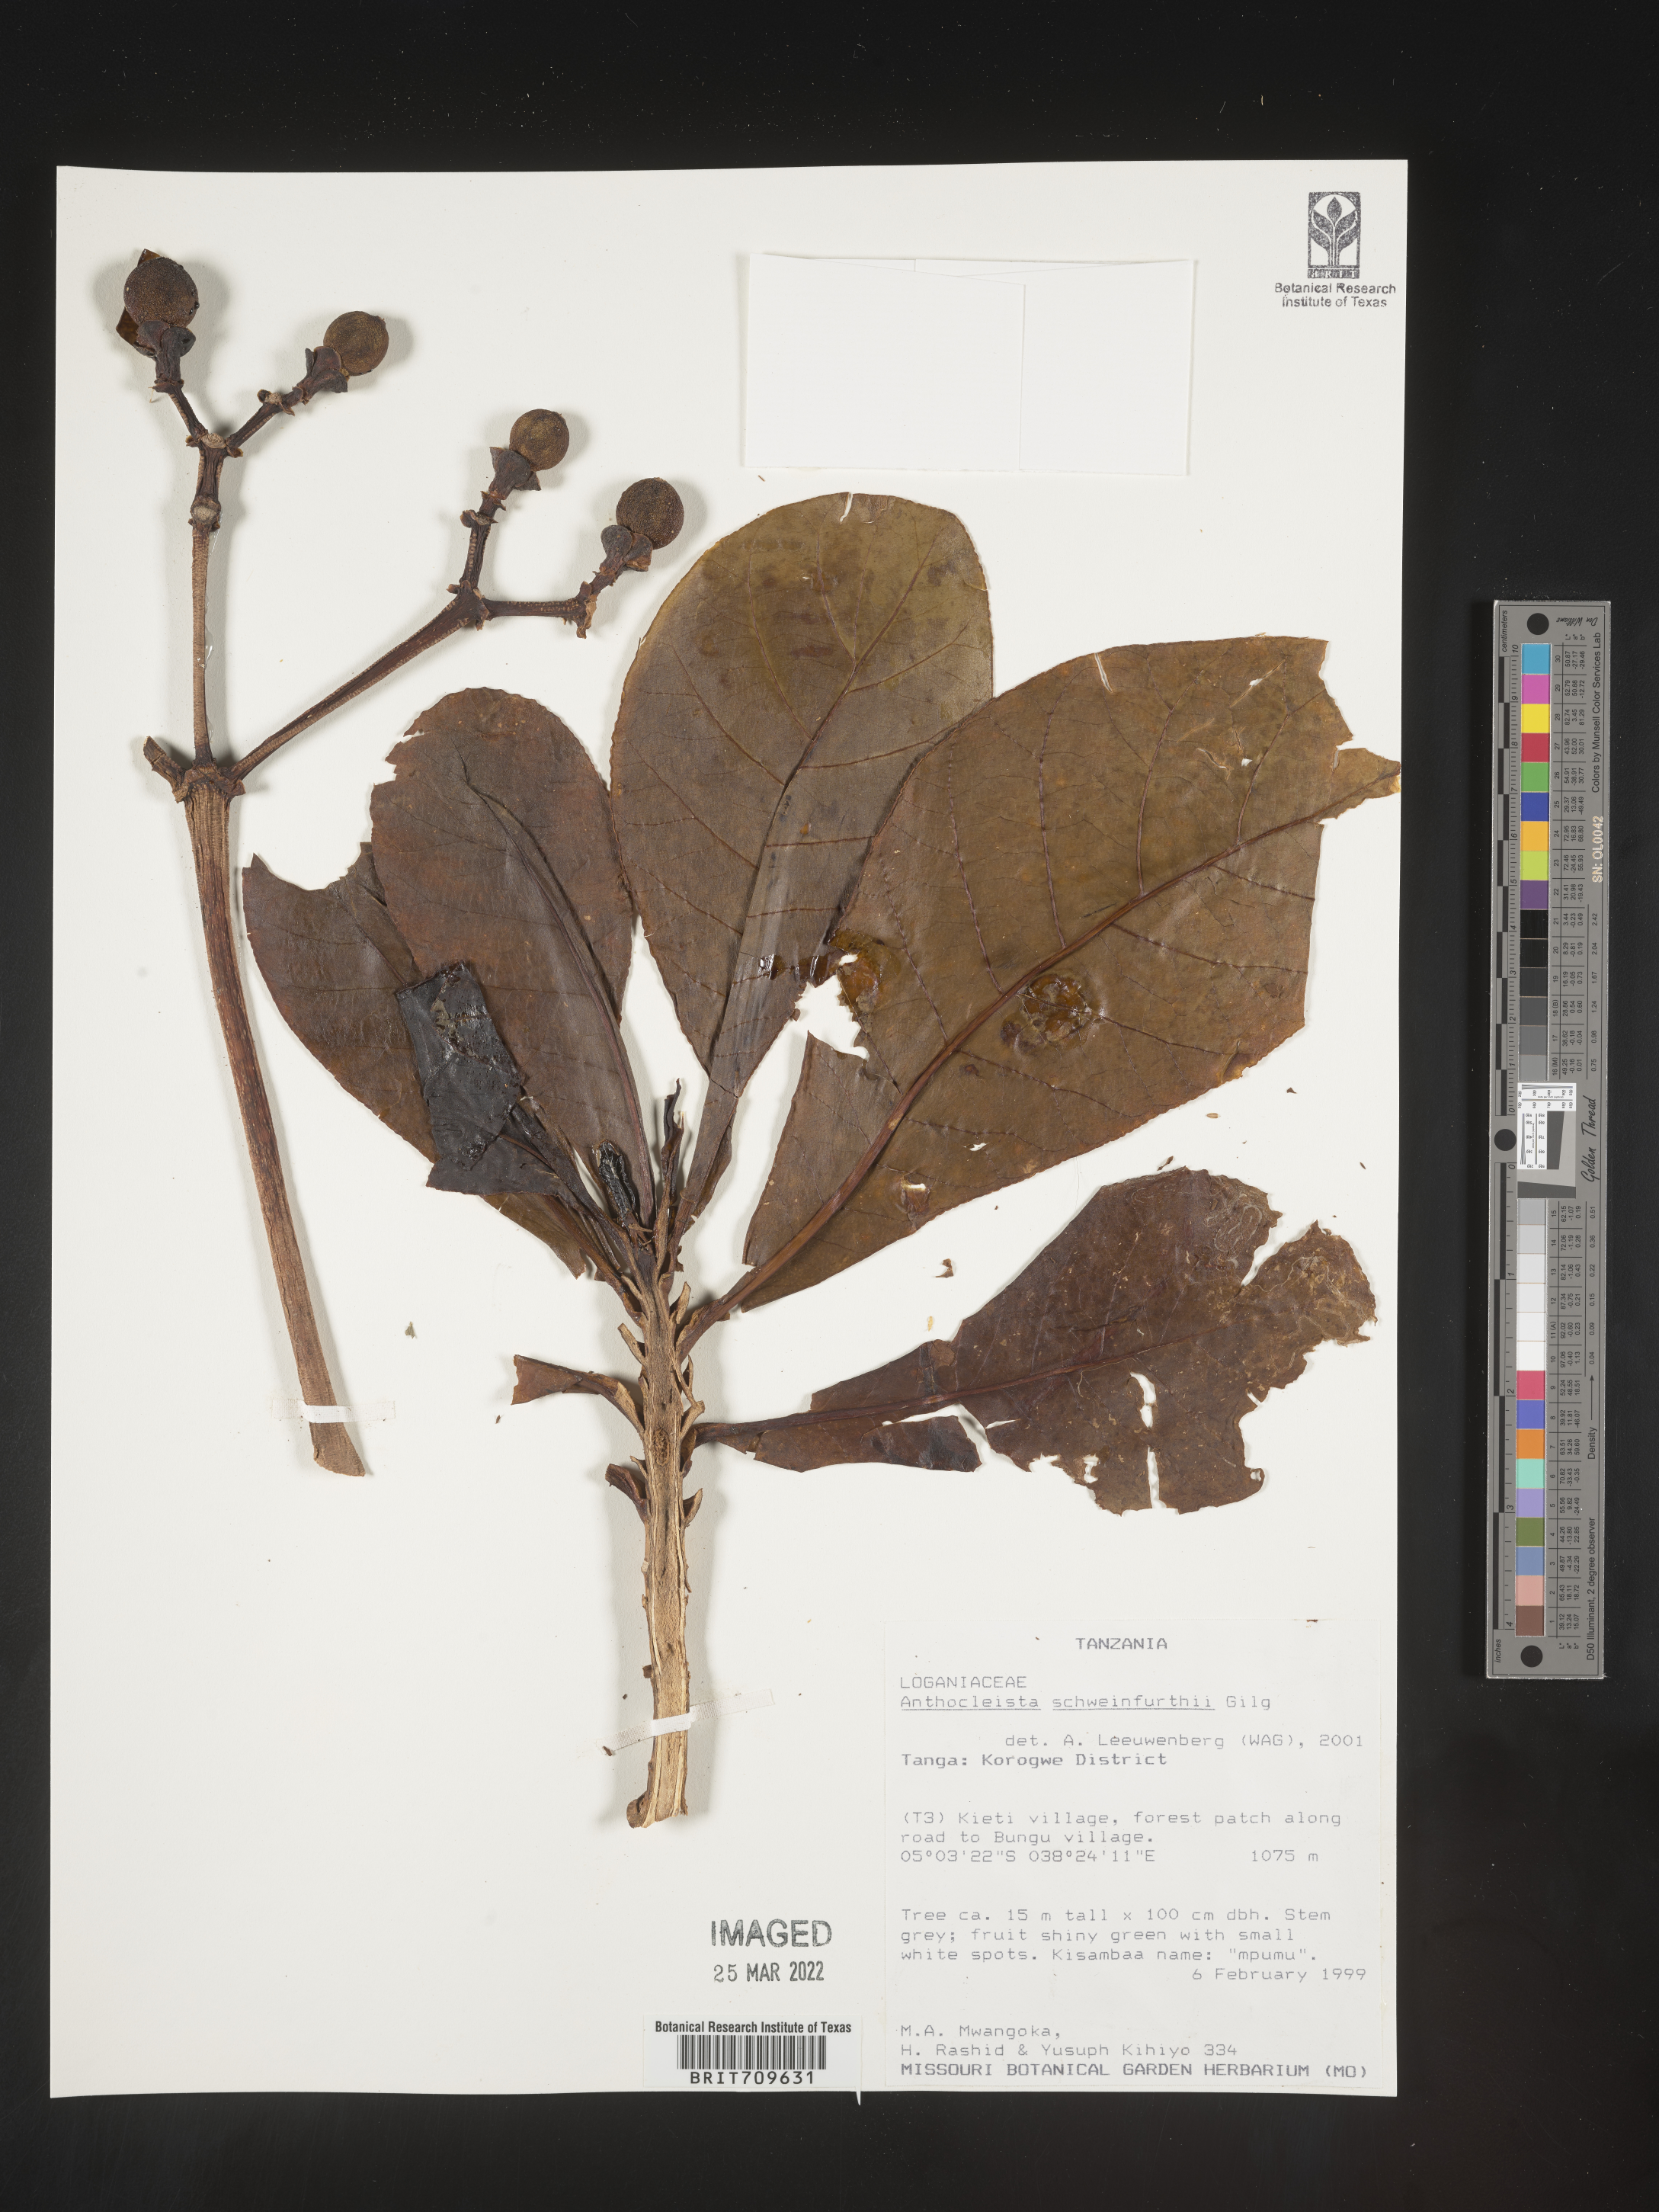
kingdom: Plantae
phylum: Tracheophyta
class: Magnoliopsida
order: Gentianales
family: Gentianaceae
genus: Anthocleista
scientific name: Anthocleista
